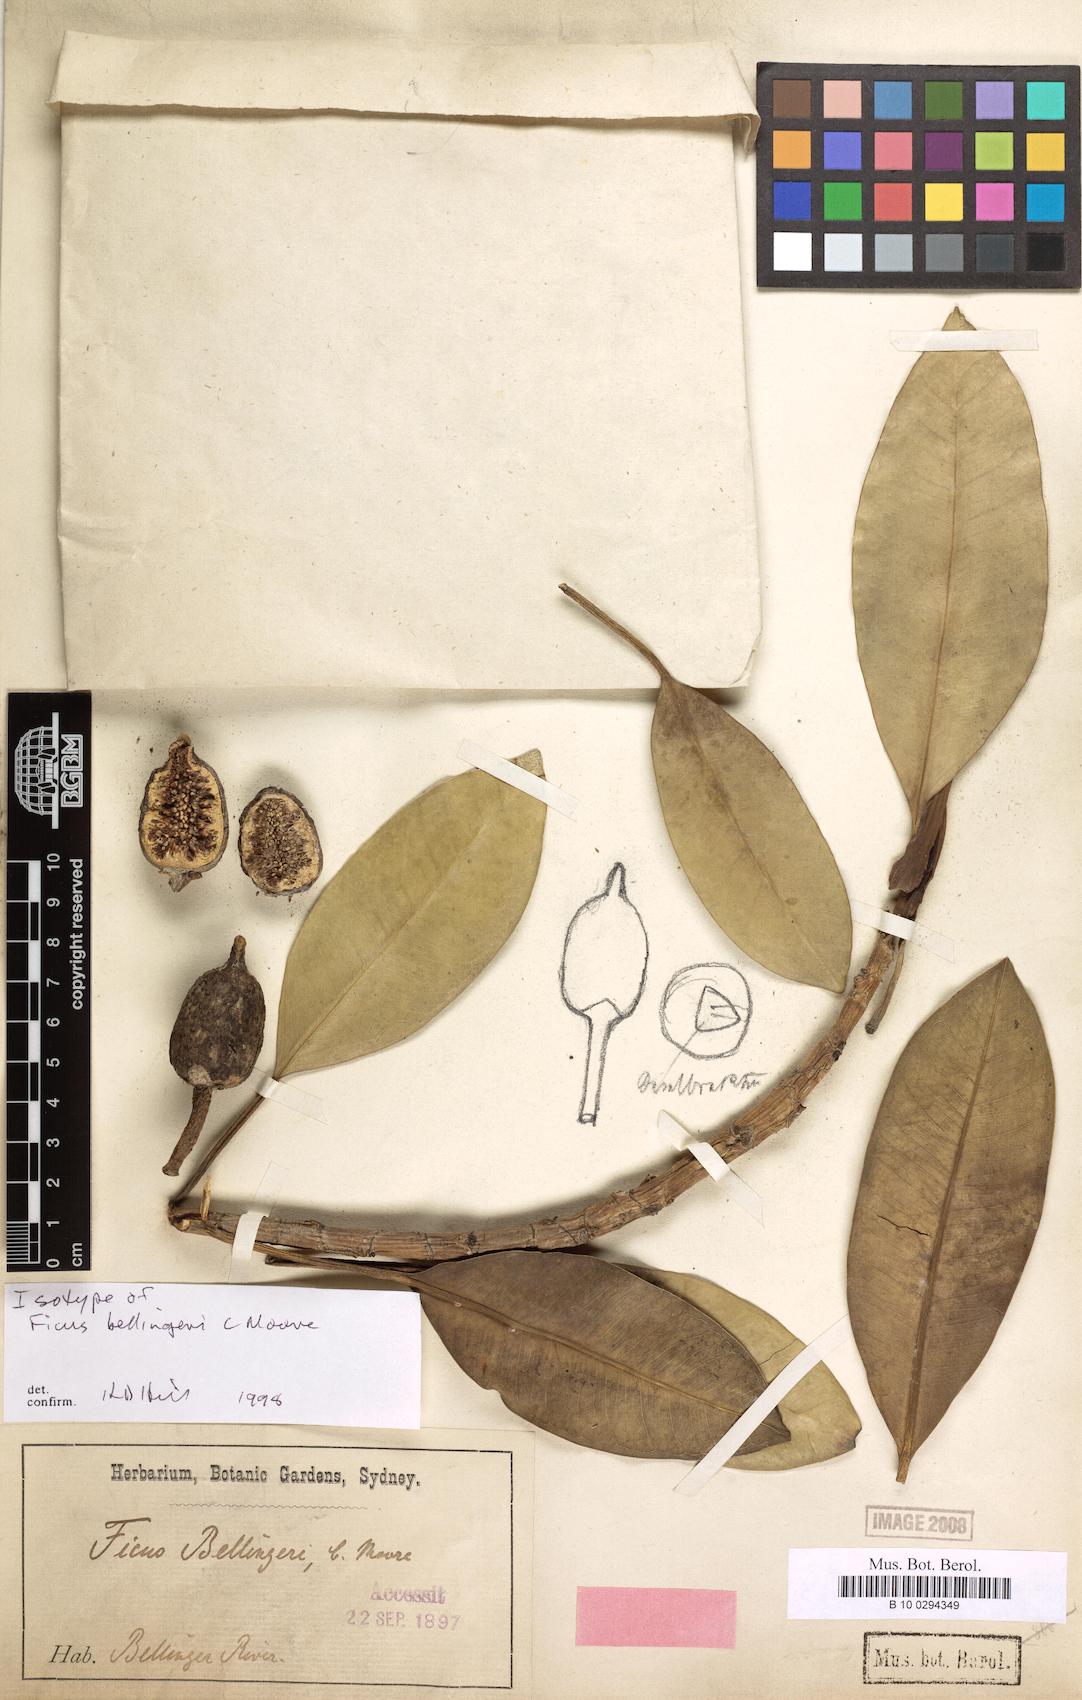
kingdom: Plantae
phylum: Tracheophyta
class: Magnoliopsida
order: Rosales
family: Moraceae
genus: Ficus
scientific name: Ficus watkinsiana
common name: Watkins fig
